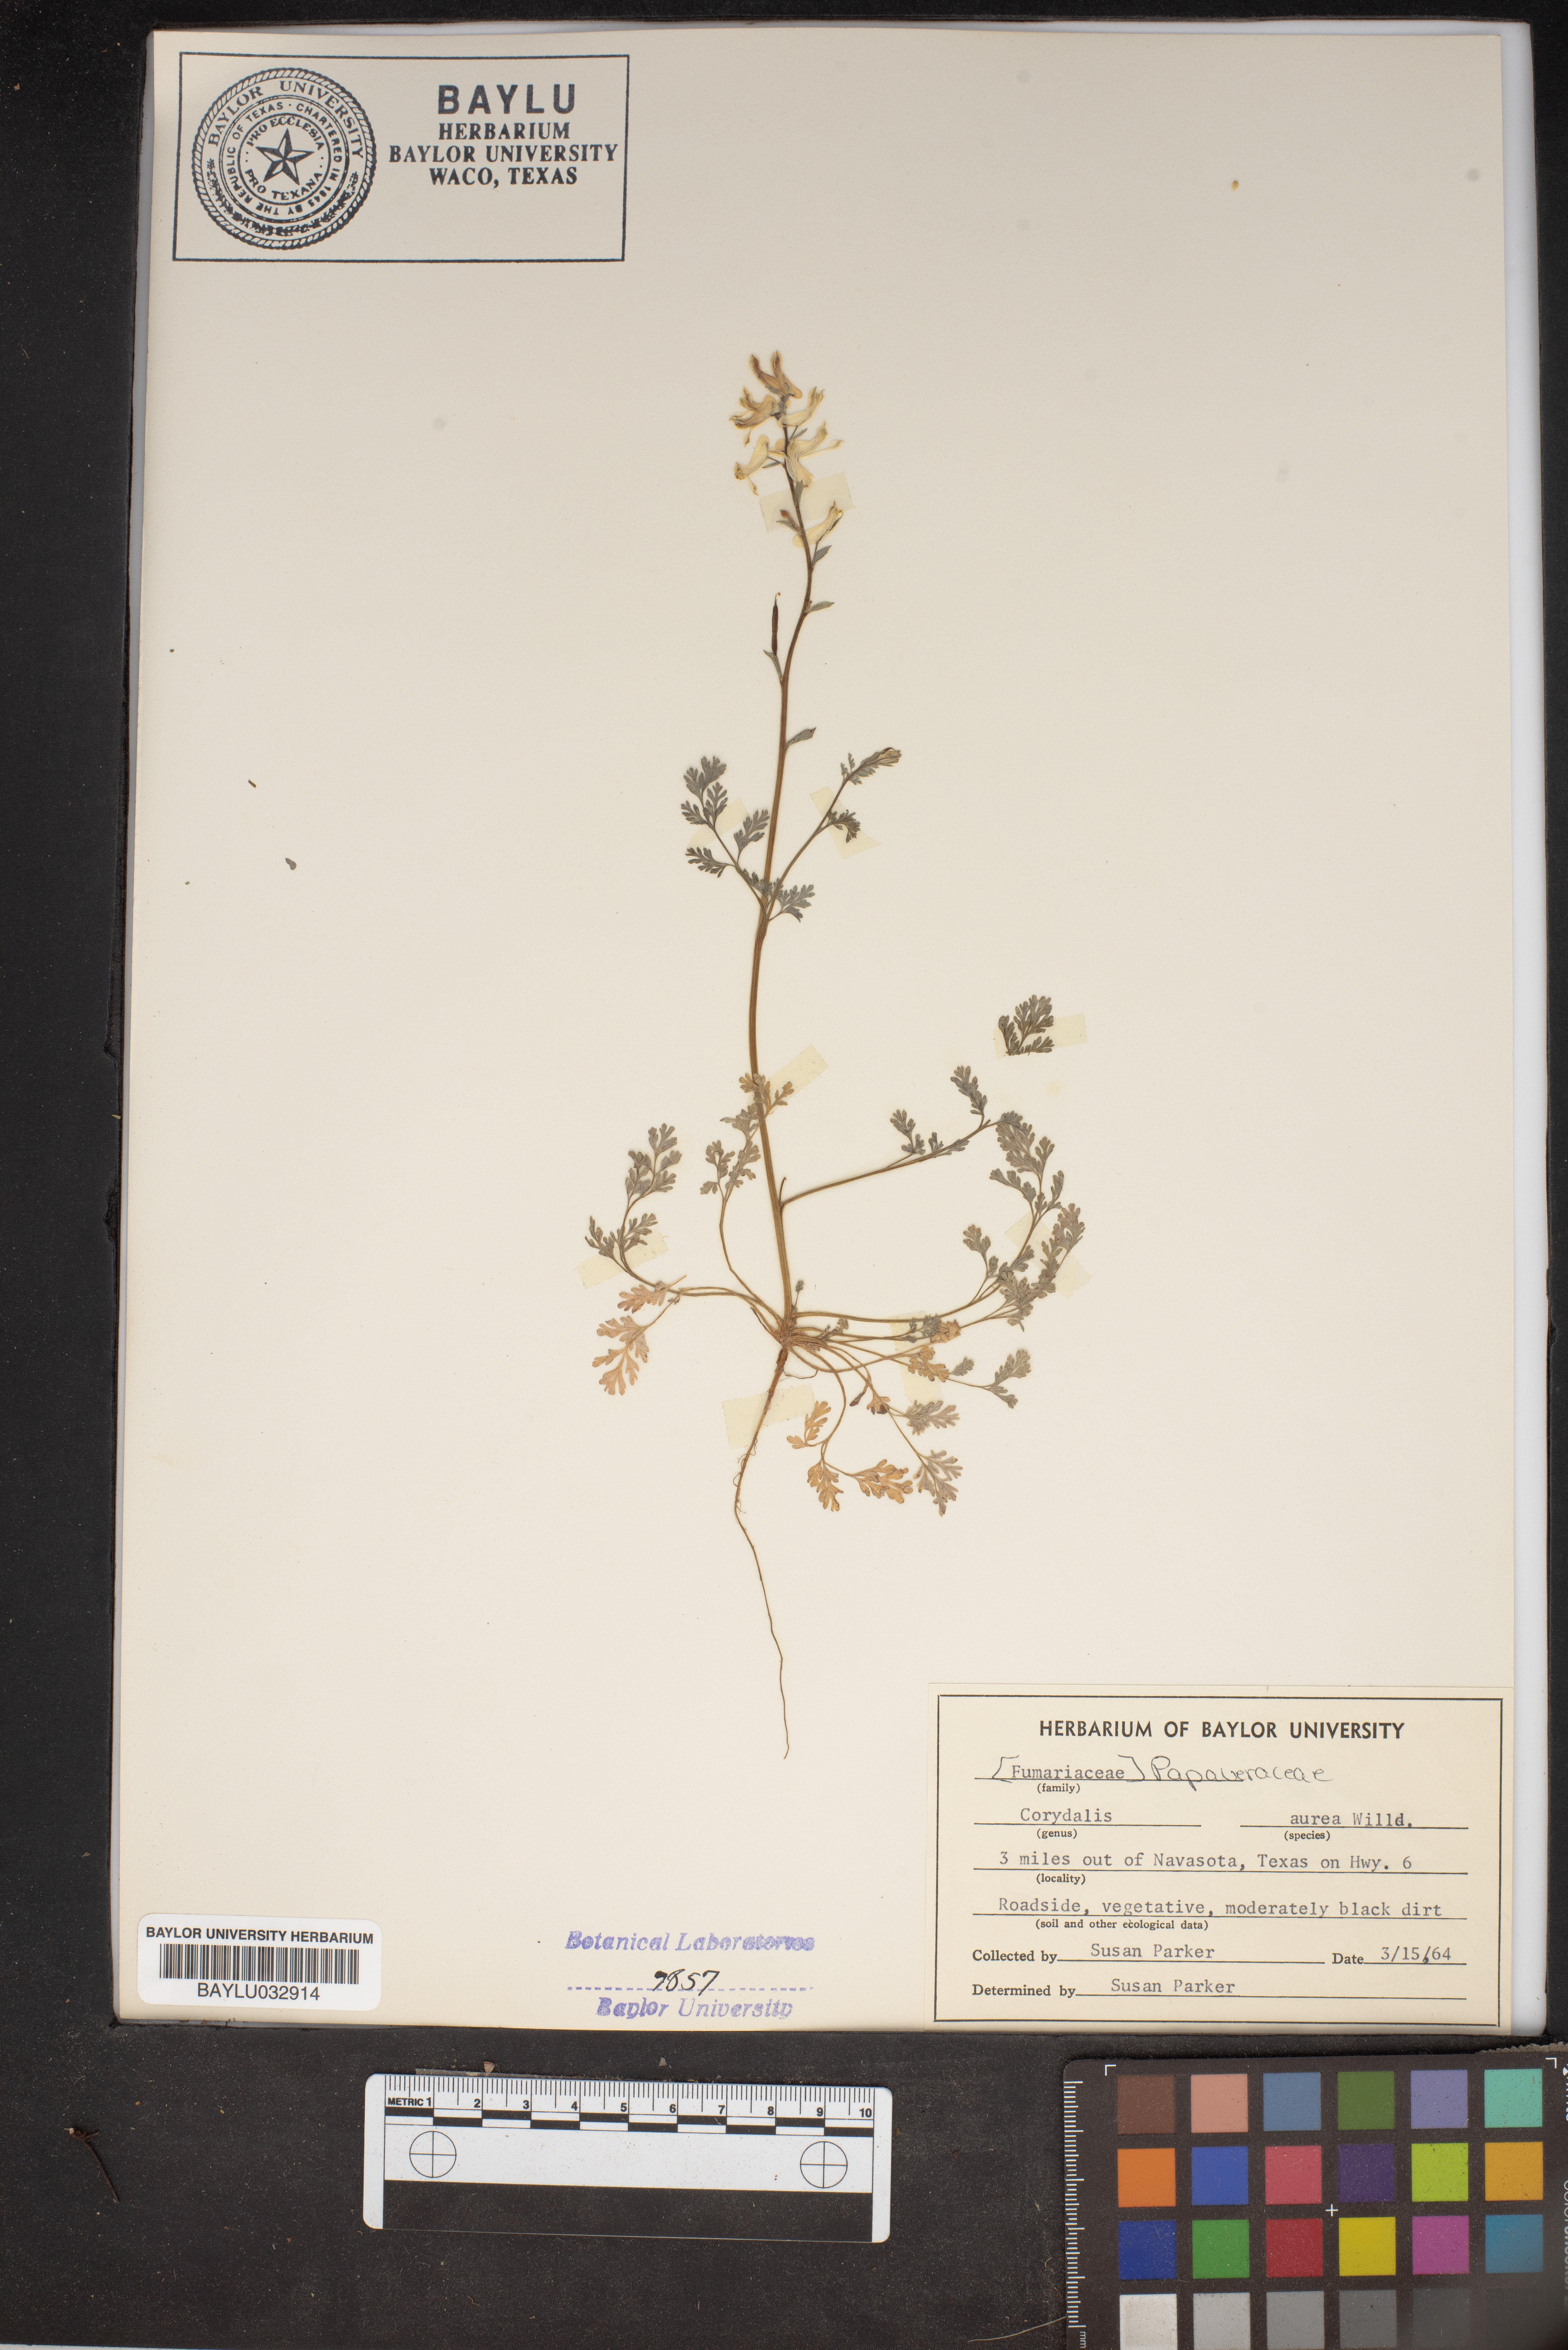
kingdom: Plantae
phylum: Tracheophyta
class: Magnoliopsida
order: Ranunculales
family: Papaveraceae
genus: Corydalis
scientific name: Corydalis aurea
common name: Golden corydalis
